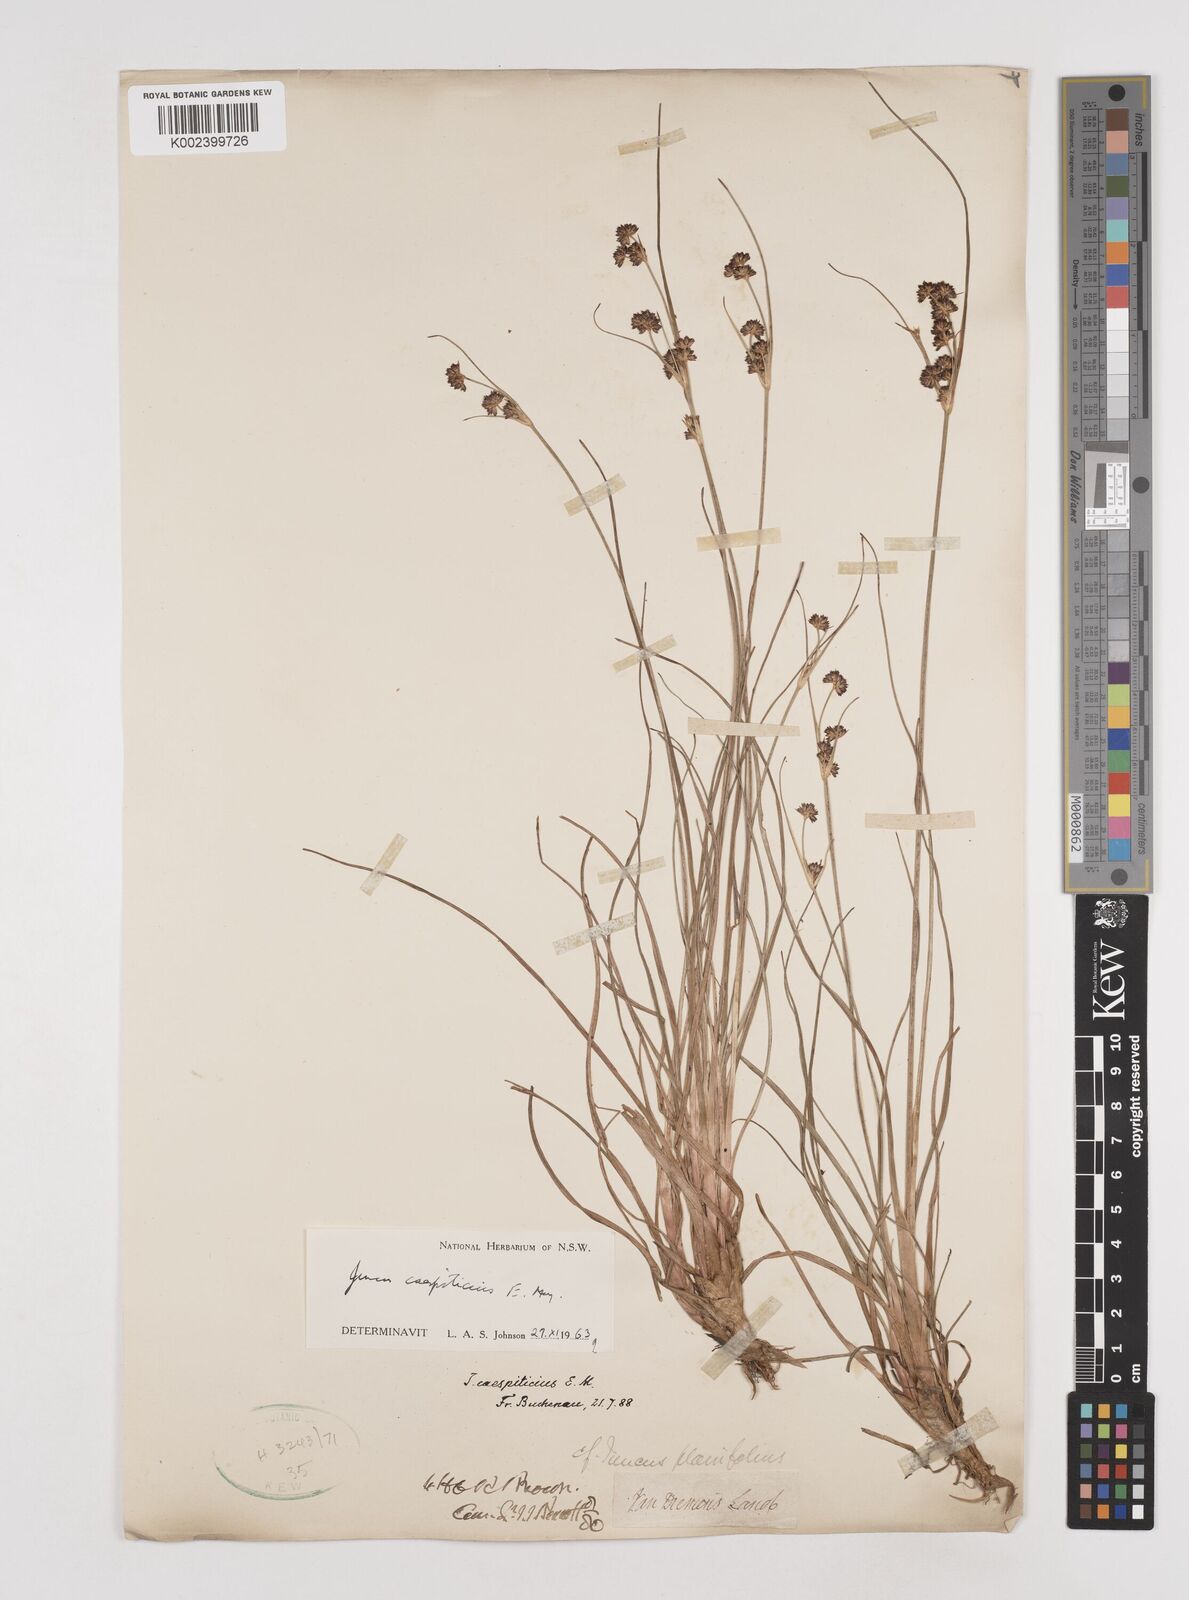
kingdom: Plantae
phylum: Tracheophyta
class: Liliopsida
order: Poales
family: Juncaceae
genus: Juncus
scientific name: Juncus caespiticius
